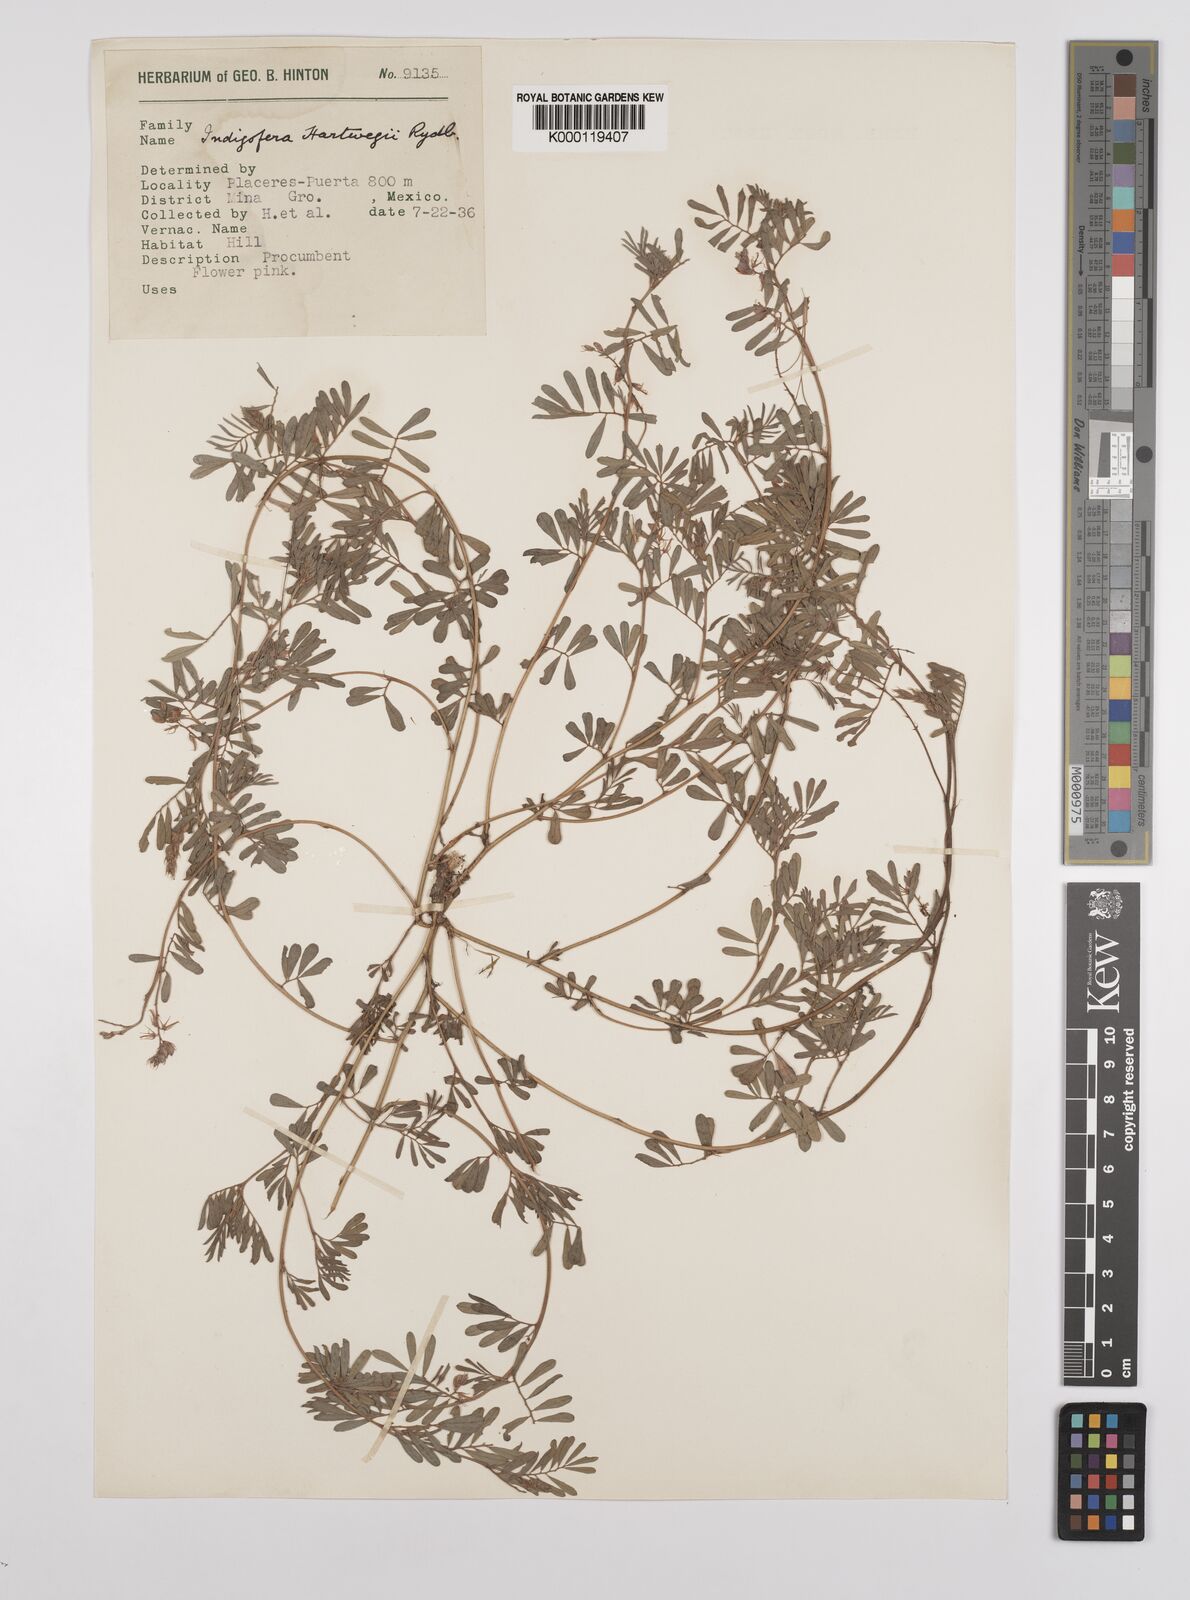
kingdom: Plantae
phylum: Tracheophyta
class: Magnoliopsida
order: Fabales
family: Fabaceae
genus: Indigofera
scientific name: Indigofera miniata
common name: Coast indigo
